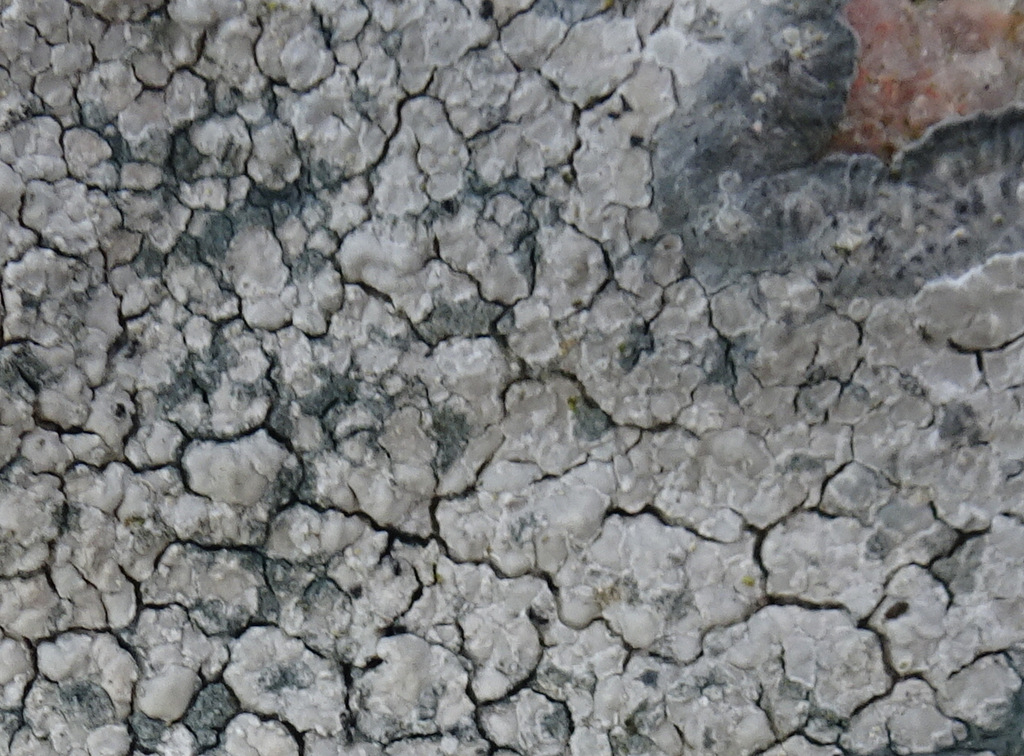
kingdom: Fungi
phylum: Ascomycota
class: Lecanoromycetes
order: Lecideales
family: Lecideaceae
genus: Lecidea
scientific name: Lecidea fuscoatra
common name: rudret skivelav
